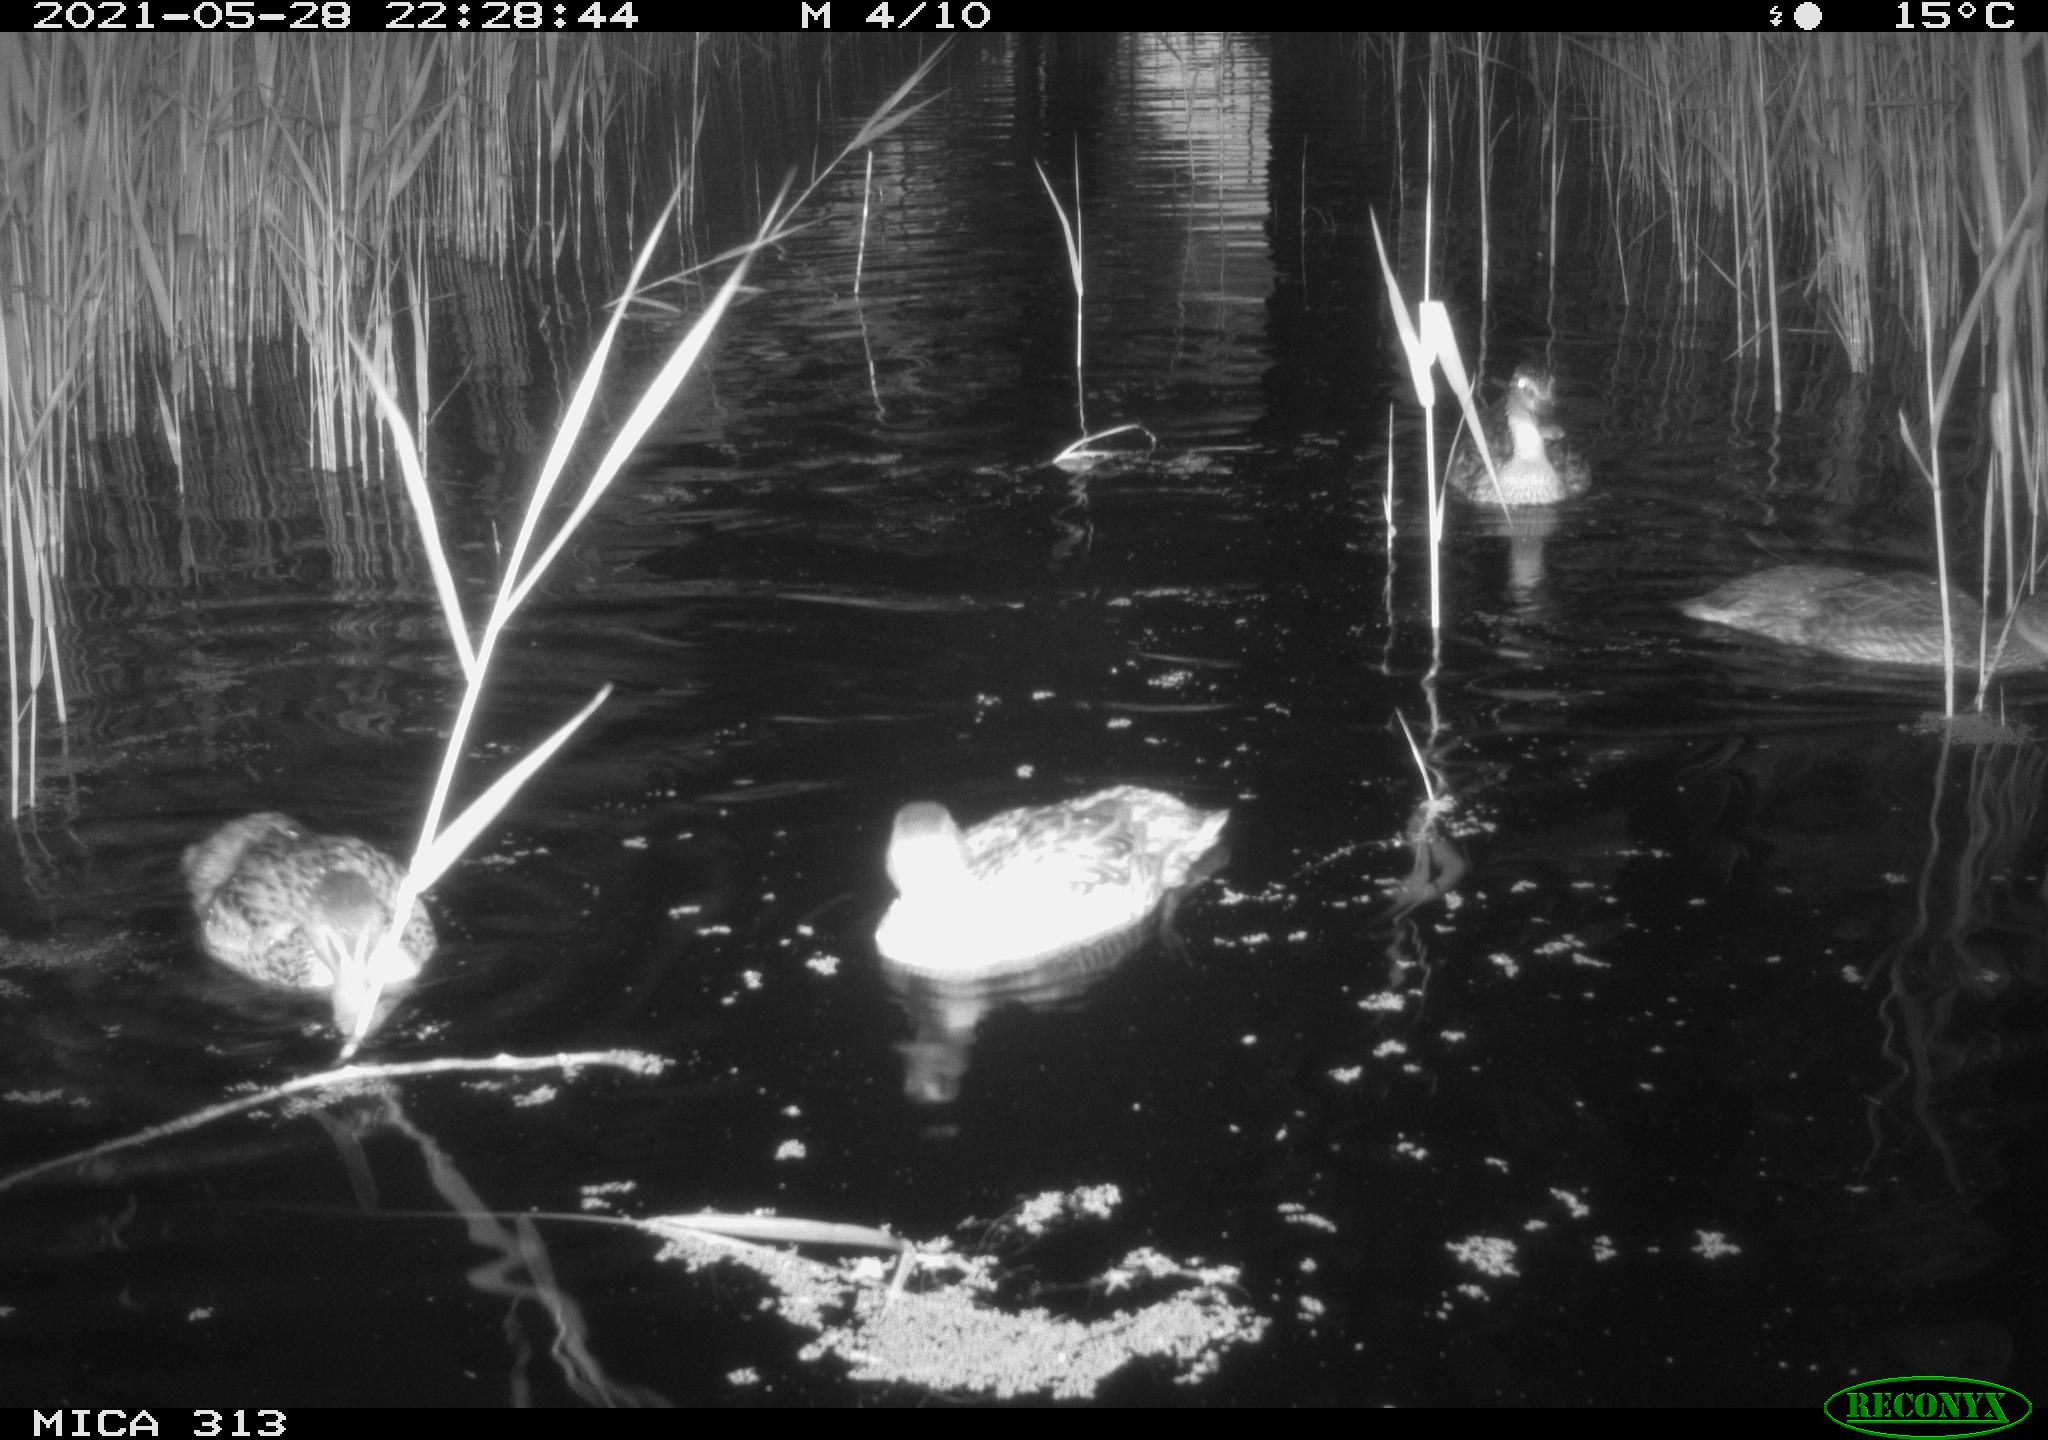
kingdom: Animalia
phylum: Chordata
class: Aves
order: Anseriformes
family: Anatidae
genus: Mareca
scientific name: Mareca strepera
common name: Gadwall
